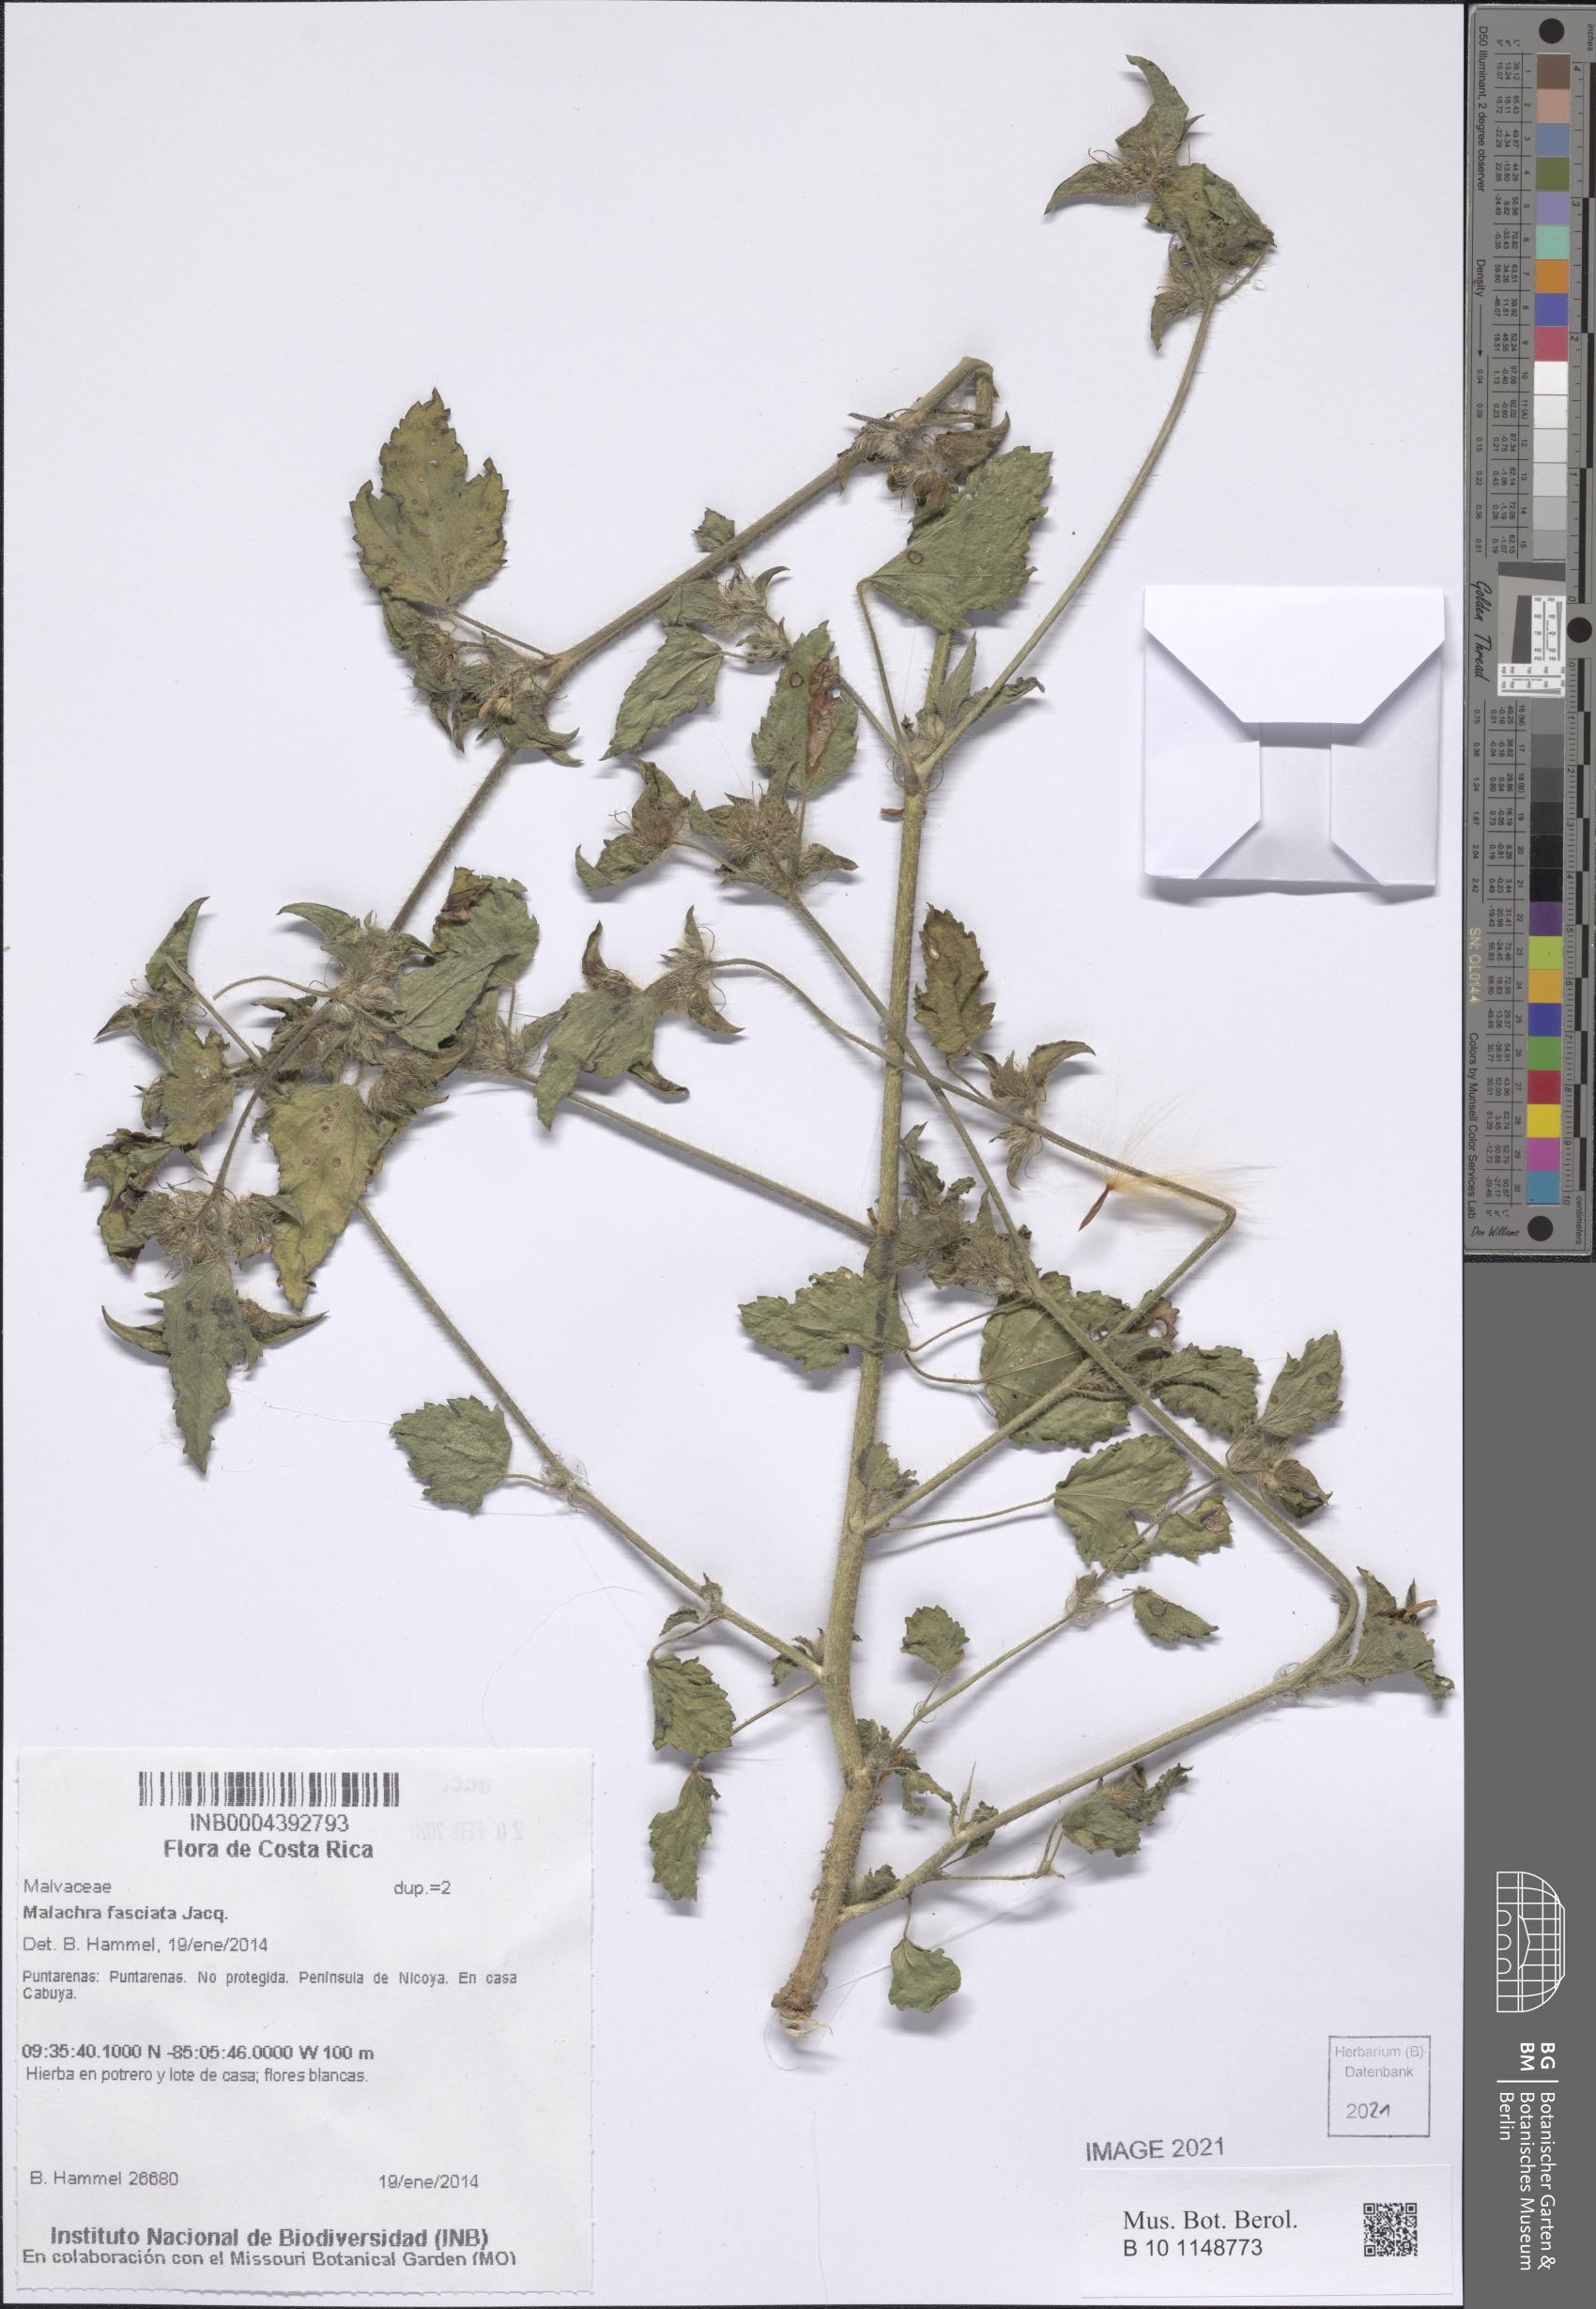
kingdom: Plantae
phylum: Tracheophyta
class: Magnoliopsida
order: Malvales
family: Malvaceae
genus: Malachra
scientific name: Malachra fasciata
